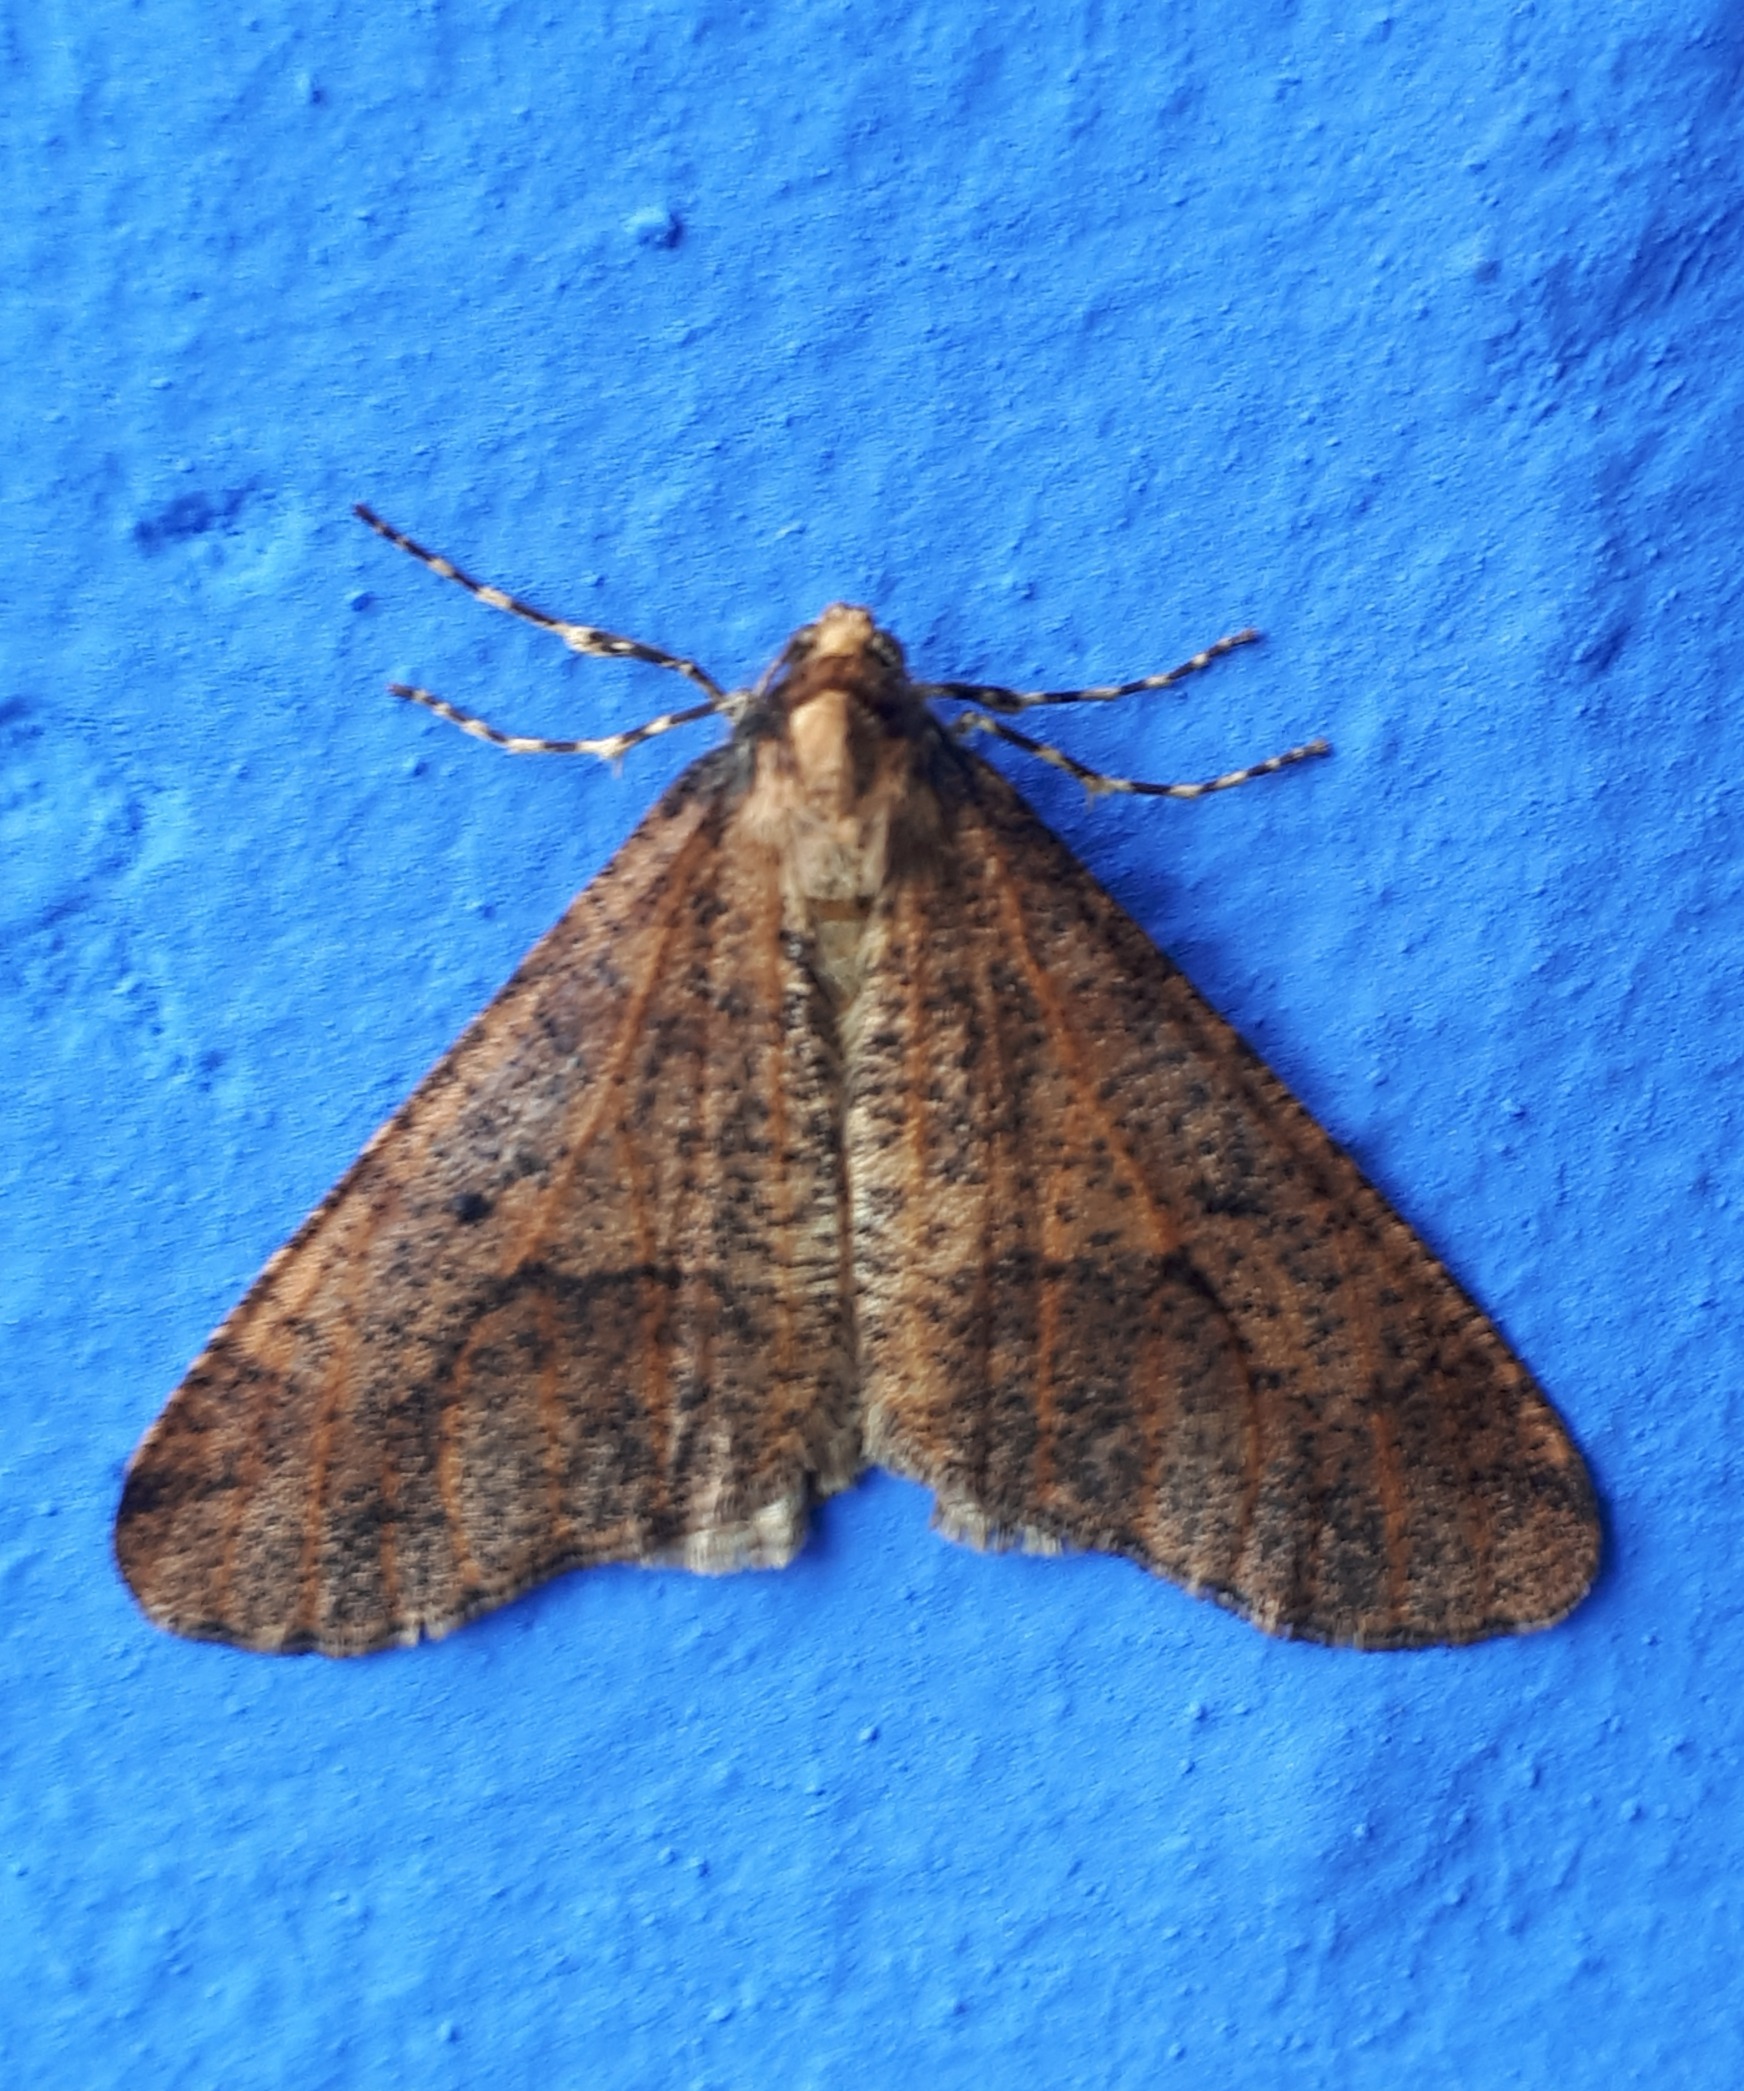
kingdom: Animalia
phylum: Arthropoda
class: Insecta
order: Lepidoptera
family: Geometridae
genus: Erannis
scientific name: Erannis defoliaria
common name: Stor frostmåler
